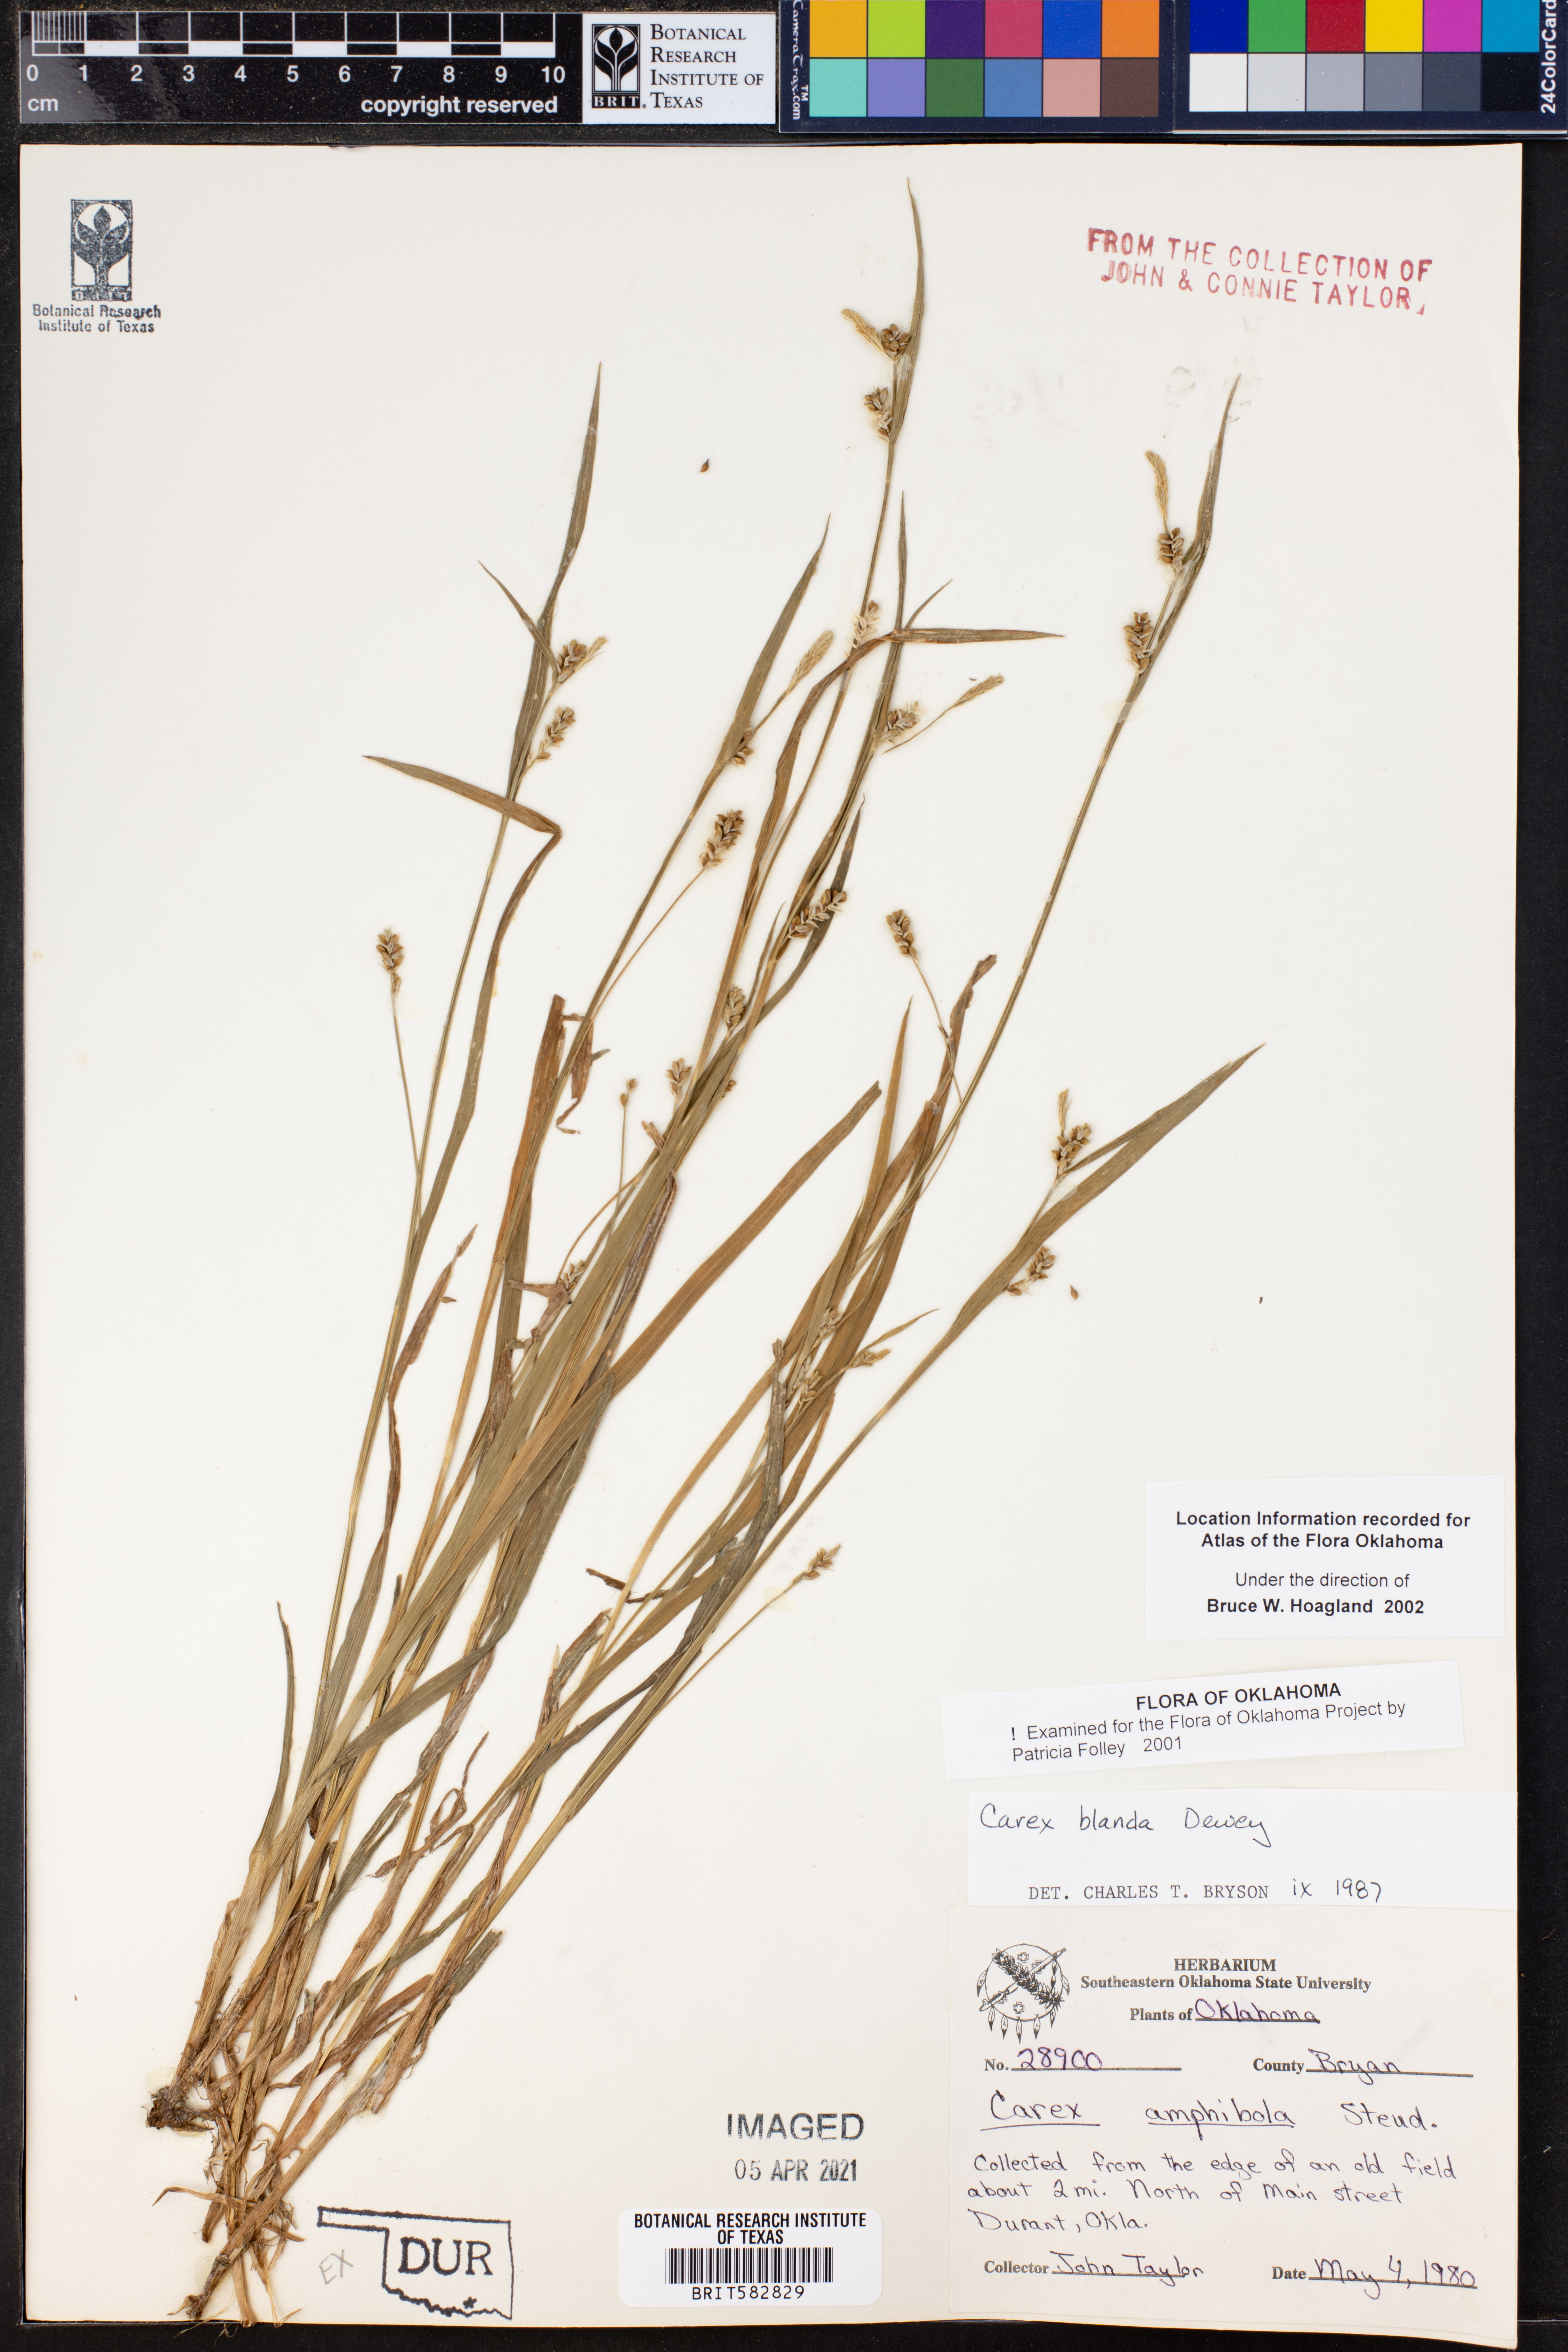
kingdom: Plantae
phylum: Tracheophyta
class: Liliopsida
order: Poales
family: Cyperaceae
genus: Carex
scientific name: Carex blanda
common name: Bland sedge
